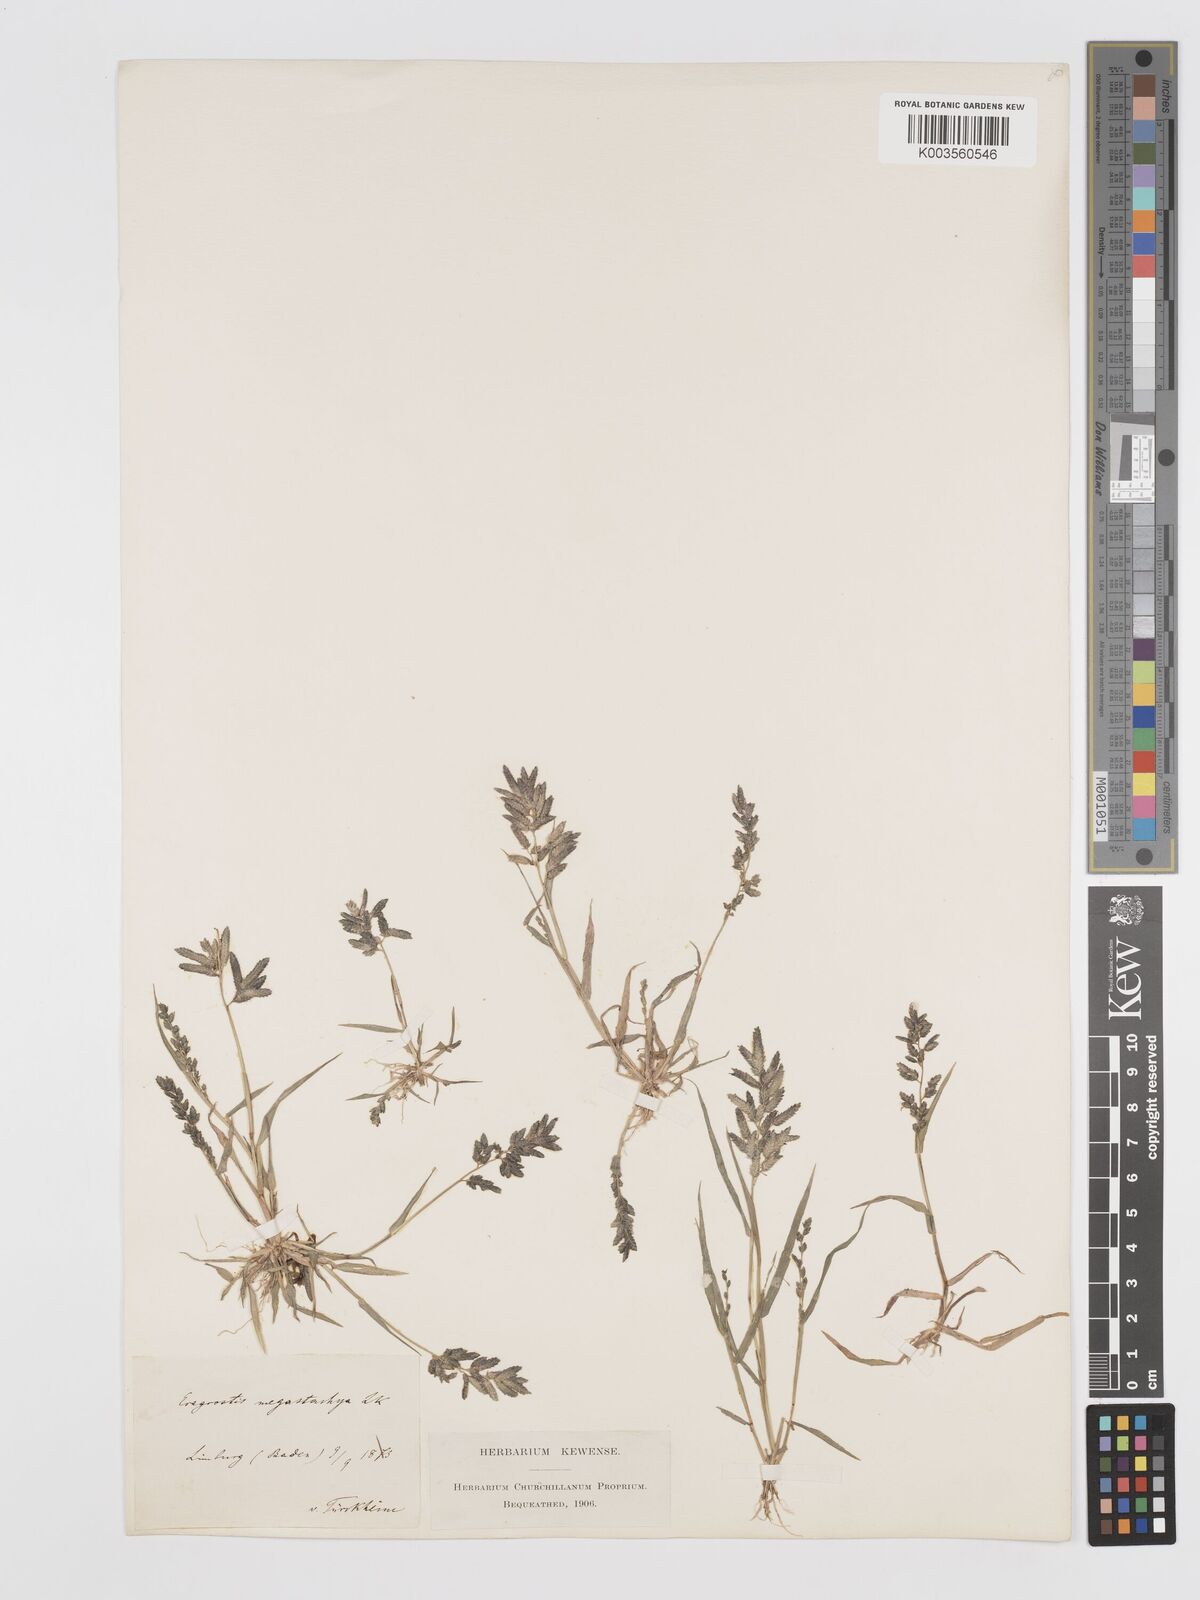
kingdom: Plantae
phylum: Tracheophyta
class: Liliopsida
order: Poales
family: Poaceae
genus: Eragrostis
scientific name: Eragrostis cilianensis
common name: Stinkgrass
